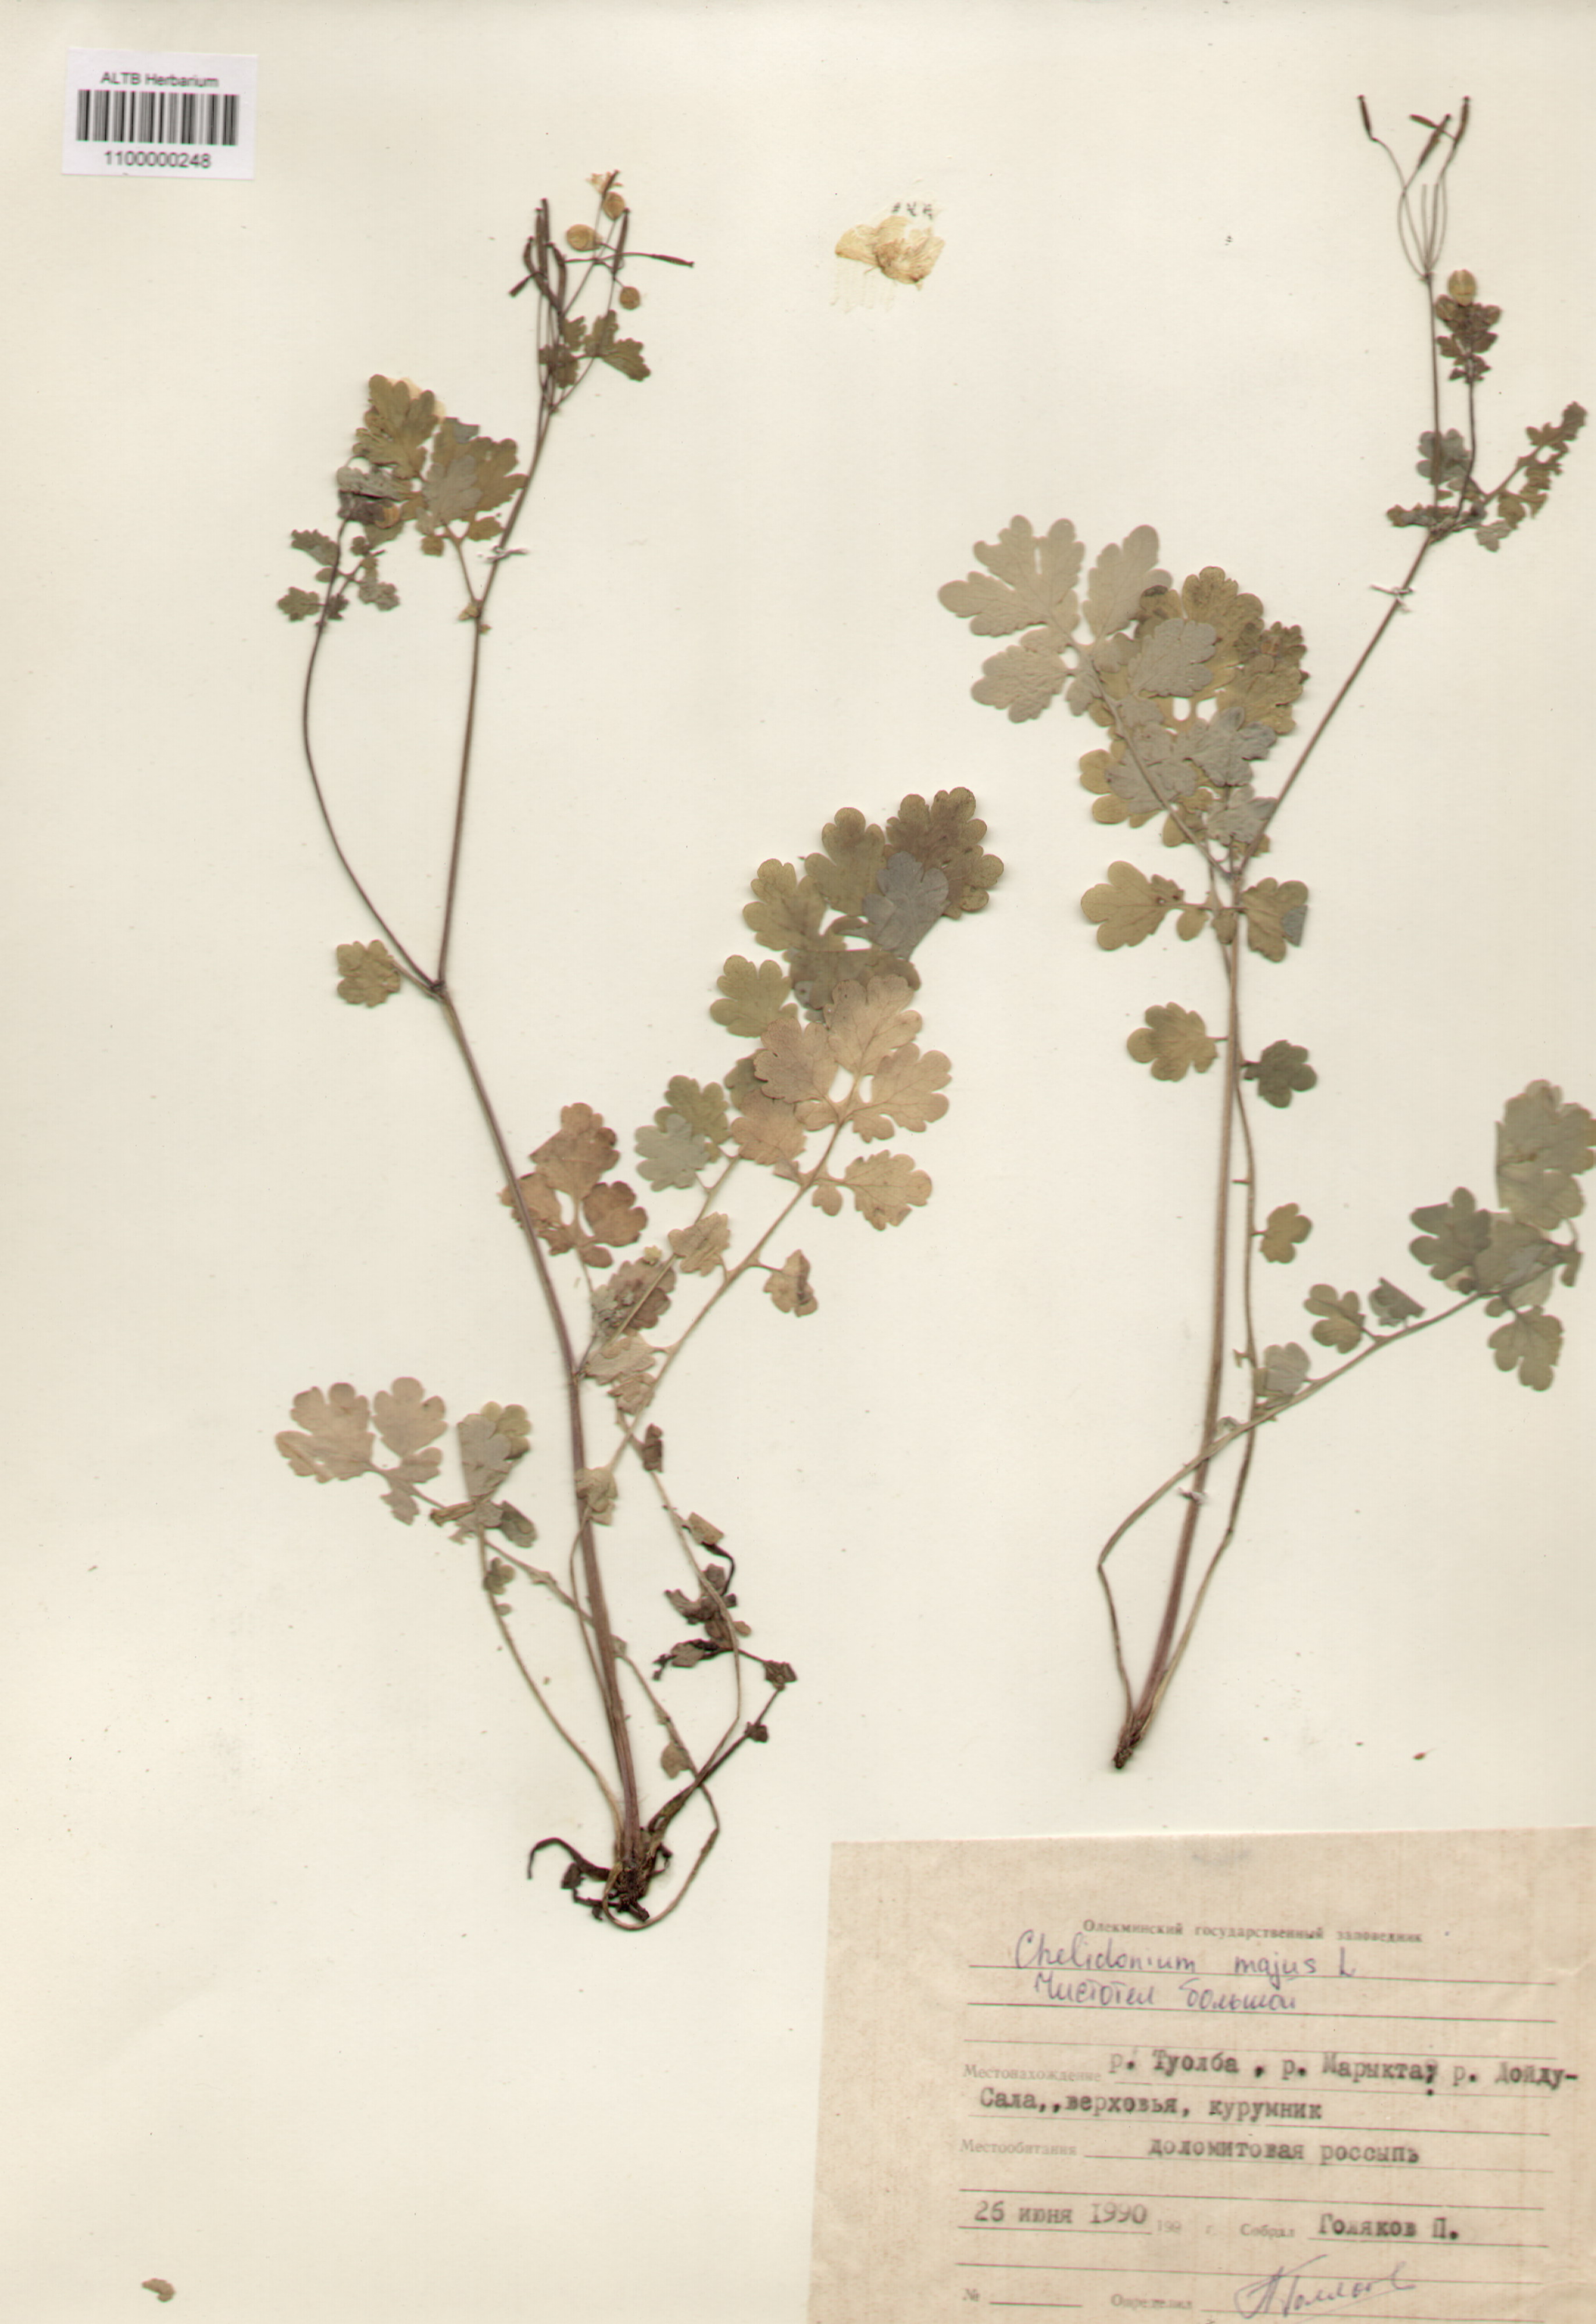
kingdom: Plantae
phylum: Tracheophyta
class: Magnoliopsida
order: Ranunculales
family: Papaveraceae
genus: Chelidonium
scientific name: Chelidonium majus
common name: Greater celandine
